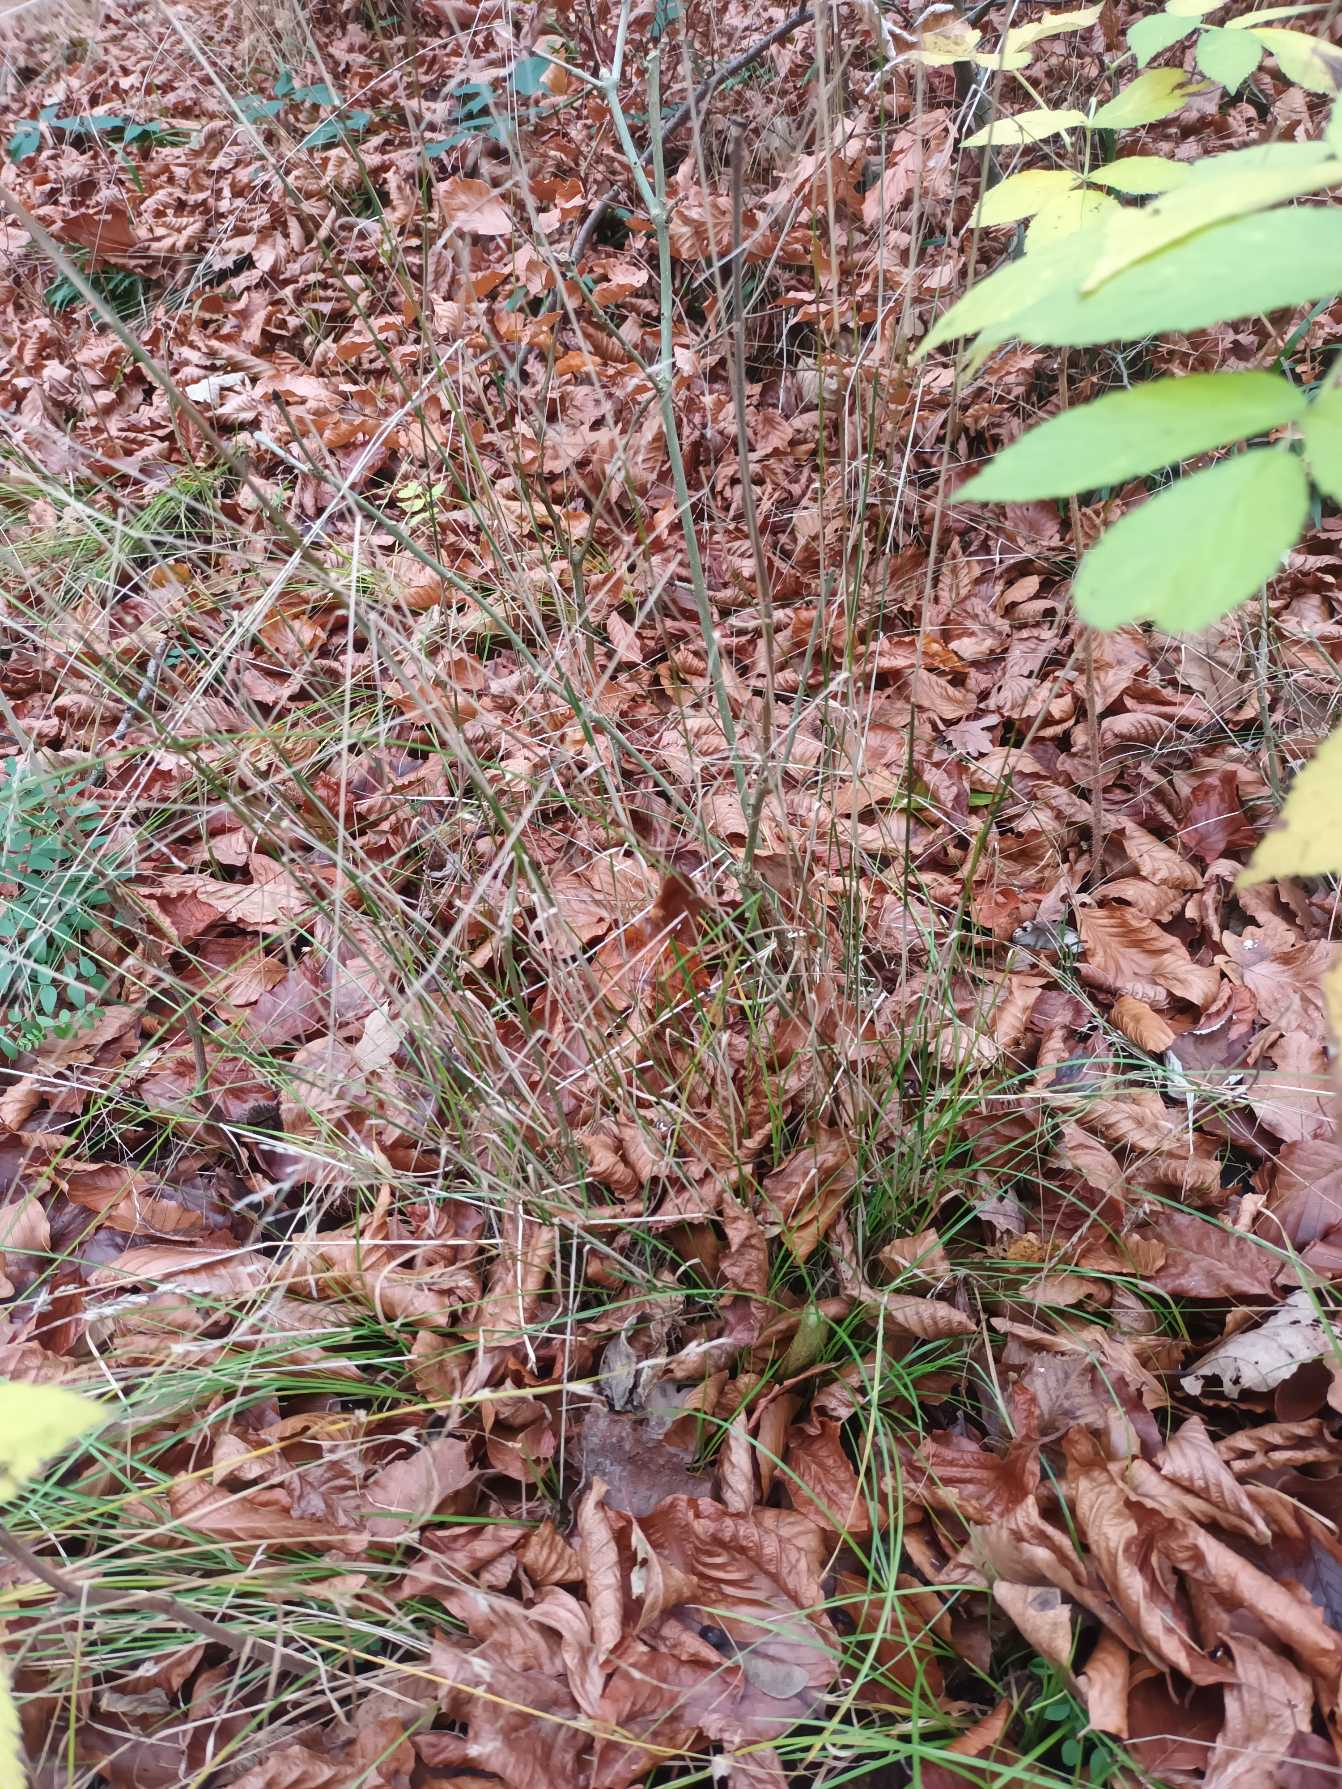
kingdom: Plantae
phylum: Tracheophyta
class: Liliopsida
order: Poales
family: Poaceae
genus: Poa
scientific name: Poa nemoralis
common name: Lund-rapgræs
